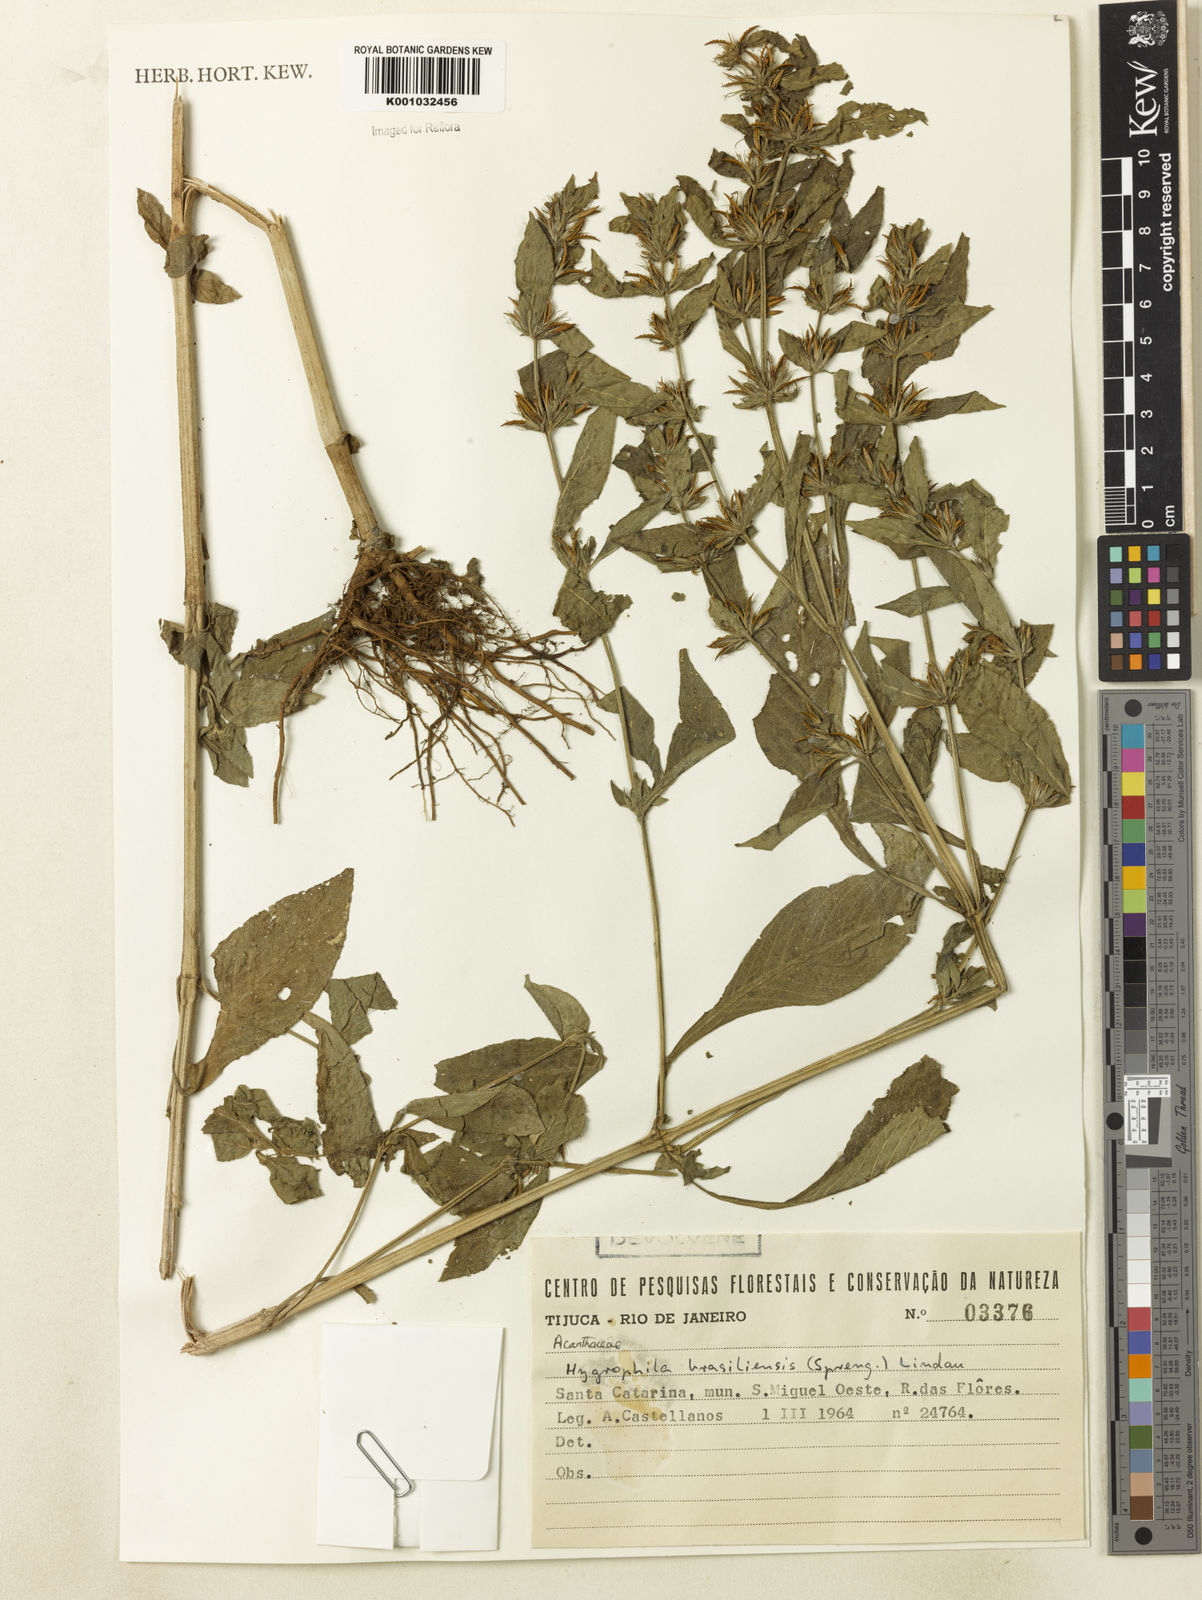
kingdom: Plantae
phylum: Tracheophyta
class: Magnoliopsida
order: Lamiales
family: Acanthaceae
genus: Hygrophila
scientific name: Hygrophila costata
